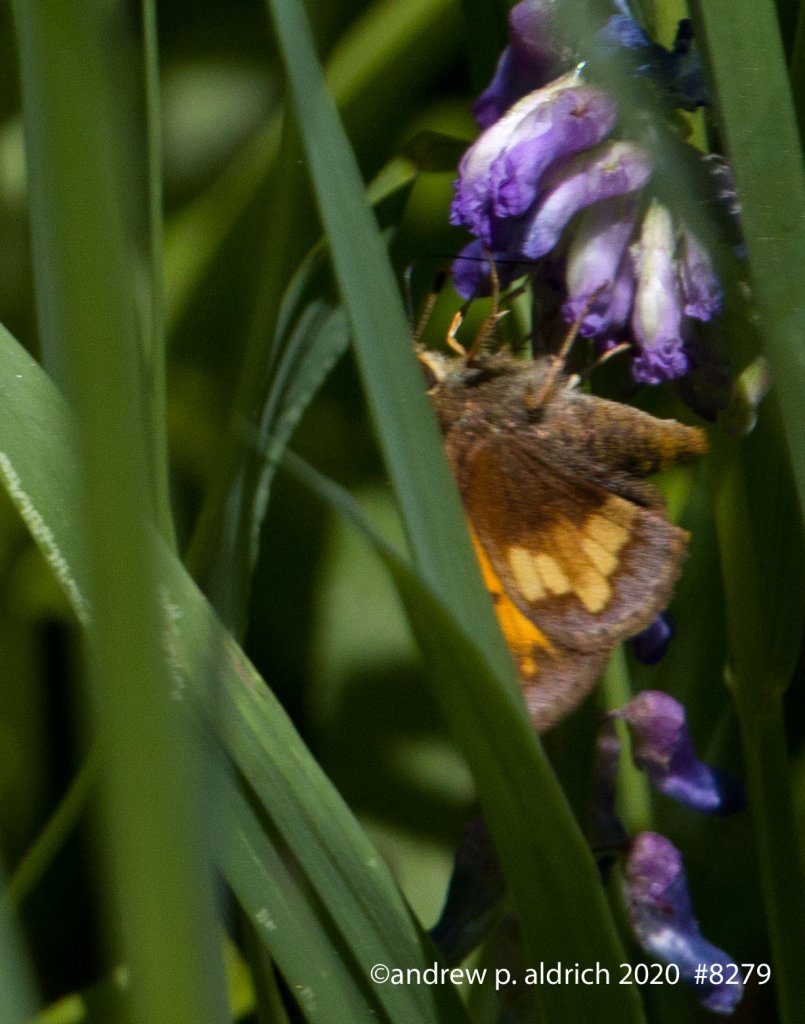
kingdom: Animalia
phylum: Arthropoda
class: Insecta
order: Lepidoptera
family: Hesperiidae
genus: Lon
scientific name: Lon hobomok
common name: Hobomok Skipper
